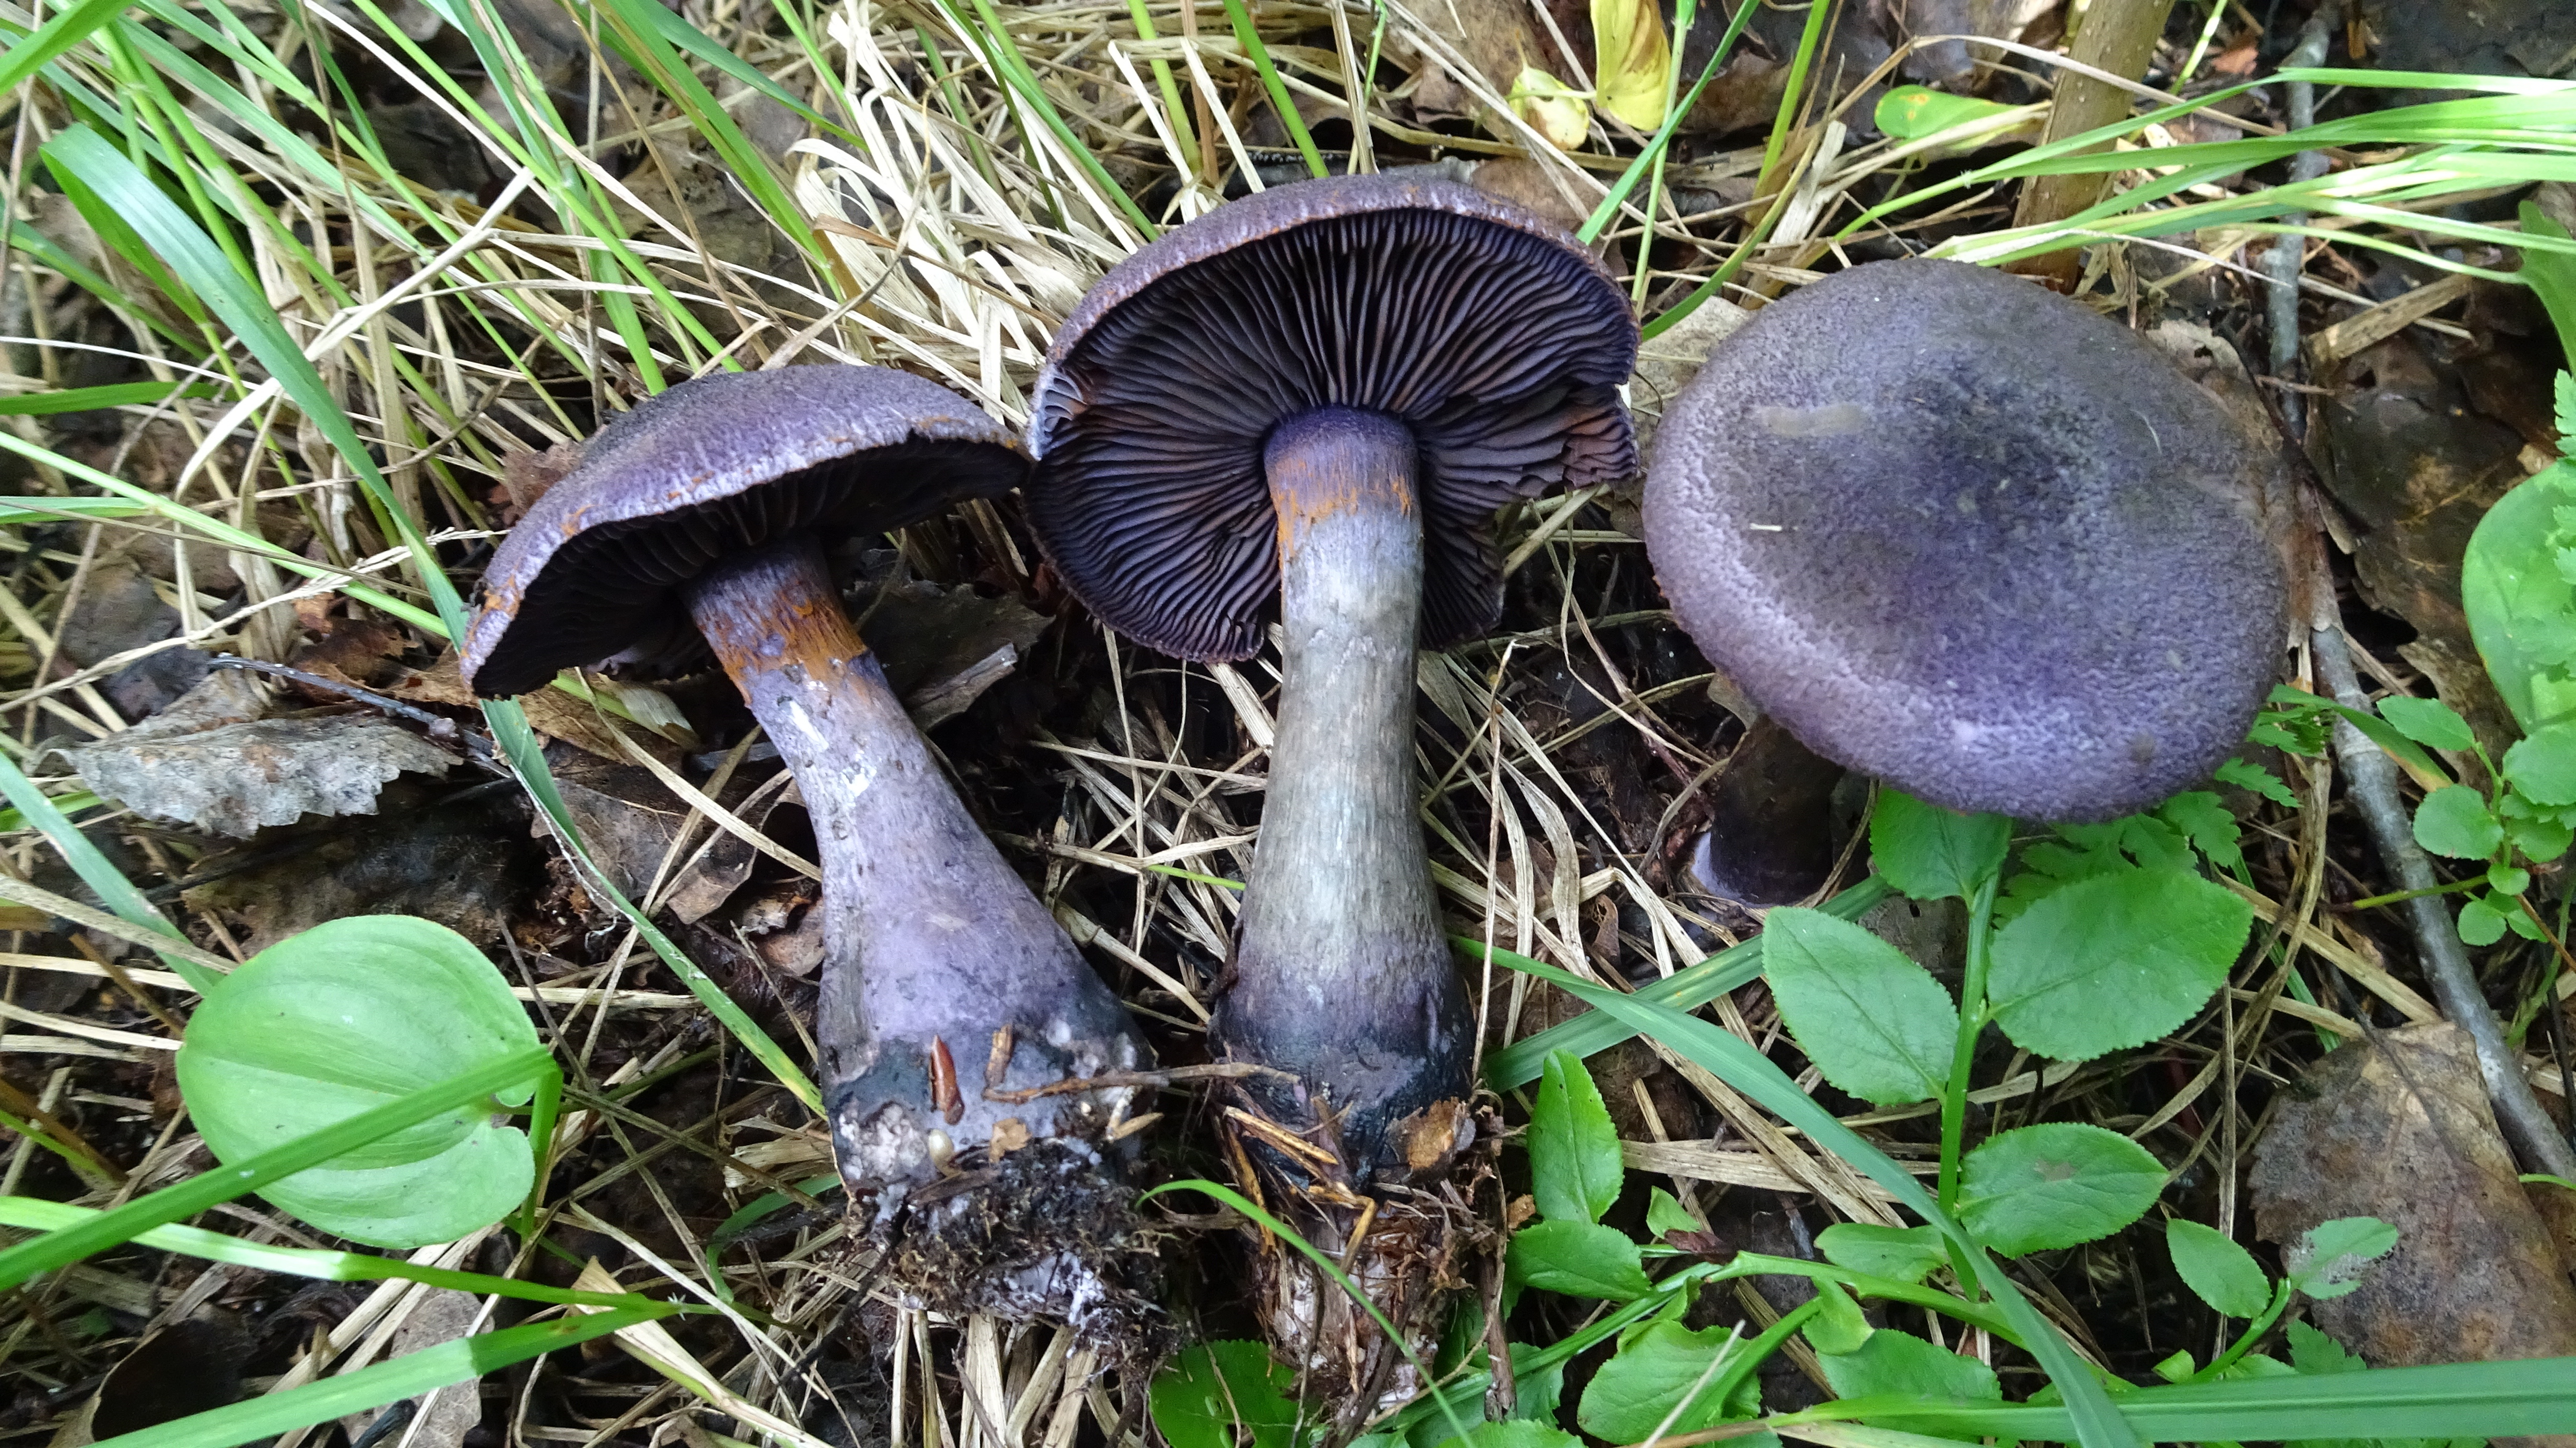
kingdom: Fungi
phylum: Basidiomycota
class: Agaricomycetes
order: Agaricales
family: Cortinariaceae
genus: Cortinarius
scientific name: Cortinarius violaceus
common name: Violet webcap
